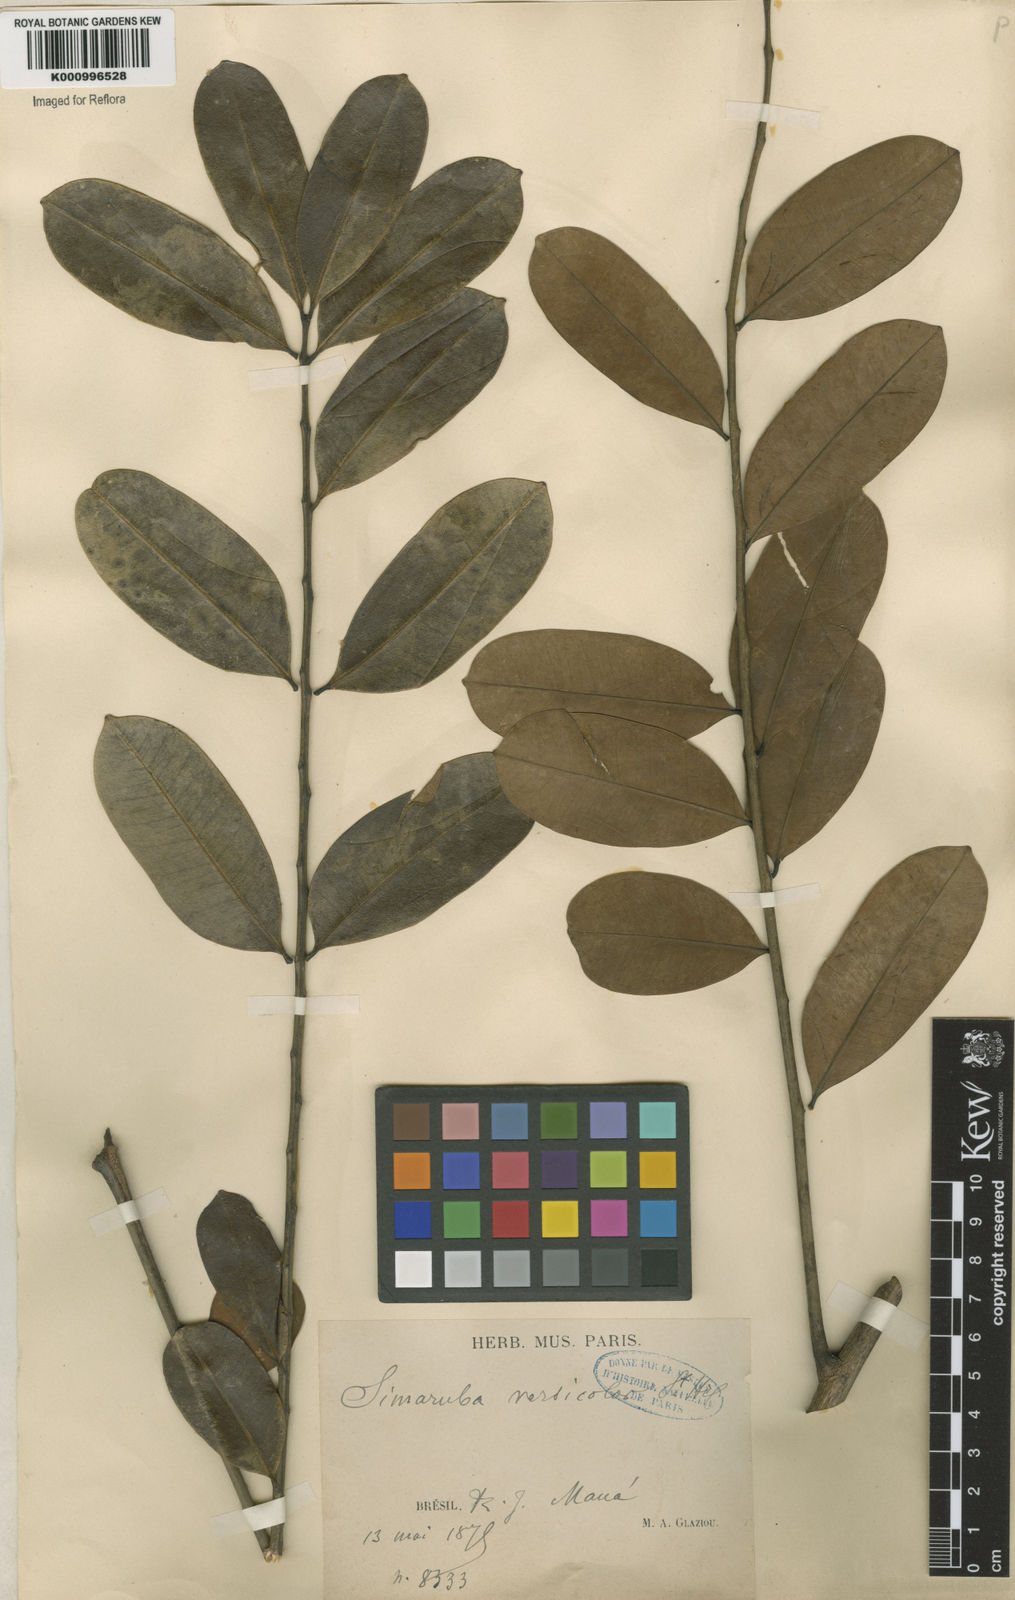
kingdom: Plantae
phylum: Tracheophyta
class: Magnoliopsida
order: Sapindales
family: Simaroubaceae
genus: Simarouba
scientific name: Simarouba versicolor
